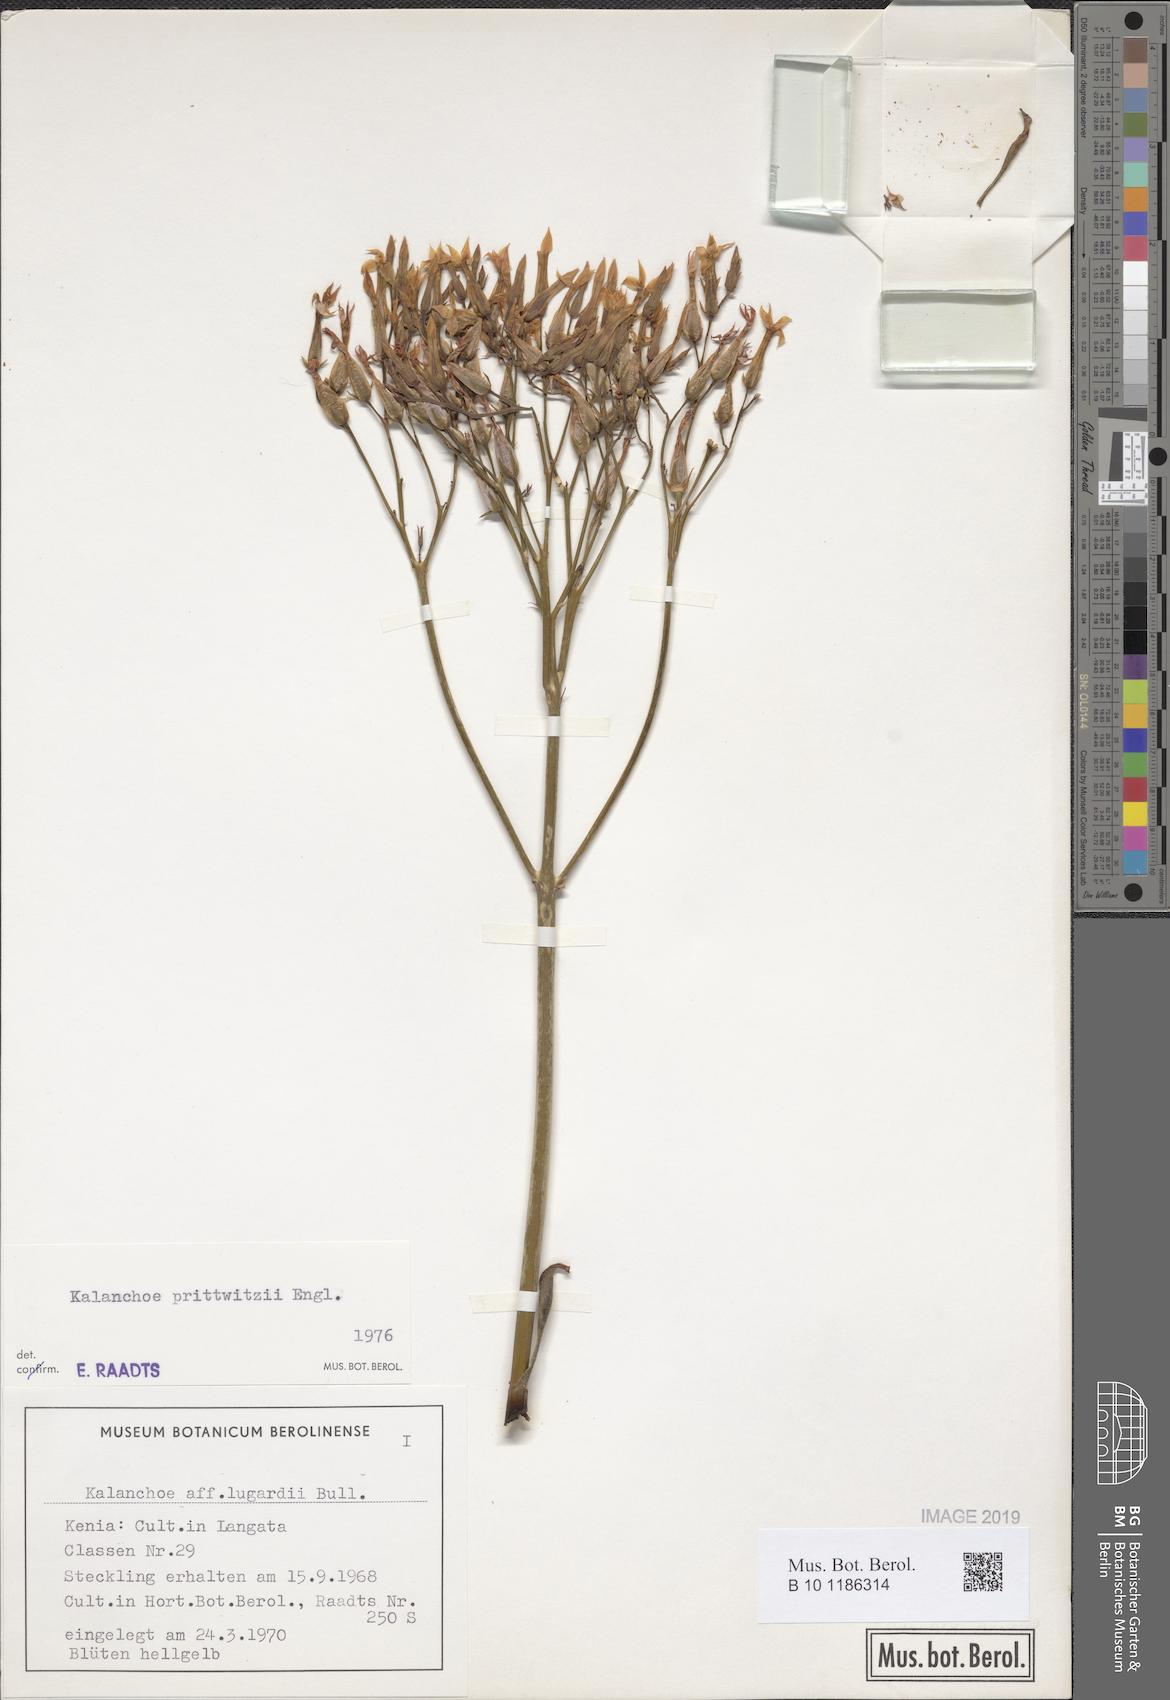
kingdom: Plantae
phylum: Tracheophyta
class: Magnoliopsida
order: Saxifragales
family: Crassulaceae
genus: Kalanchoe
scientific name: Kalanchoe prittwitzii
